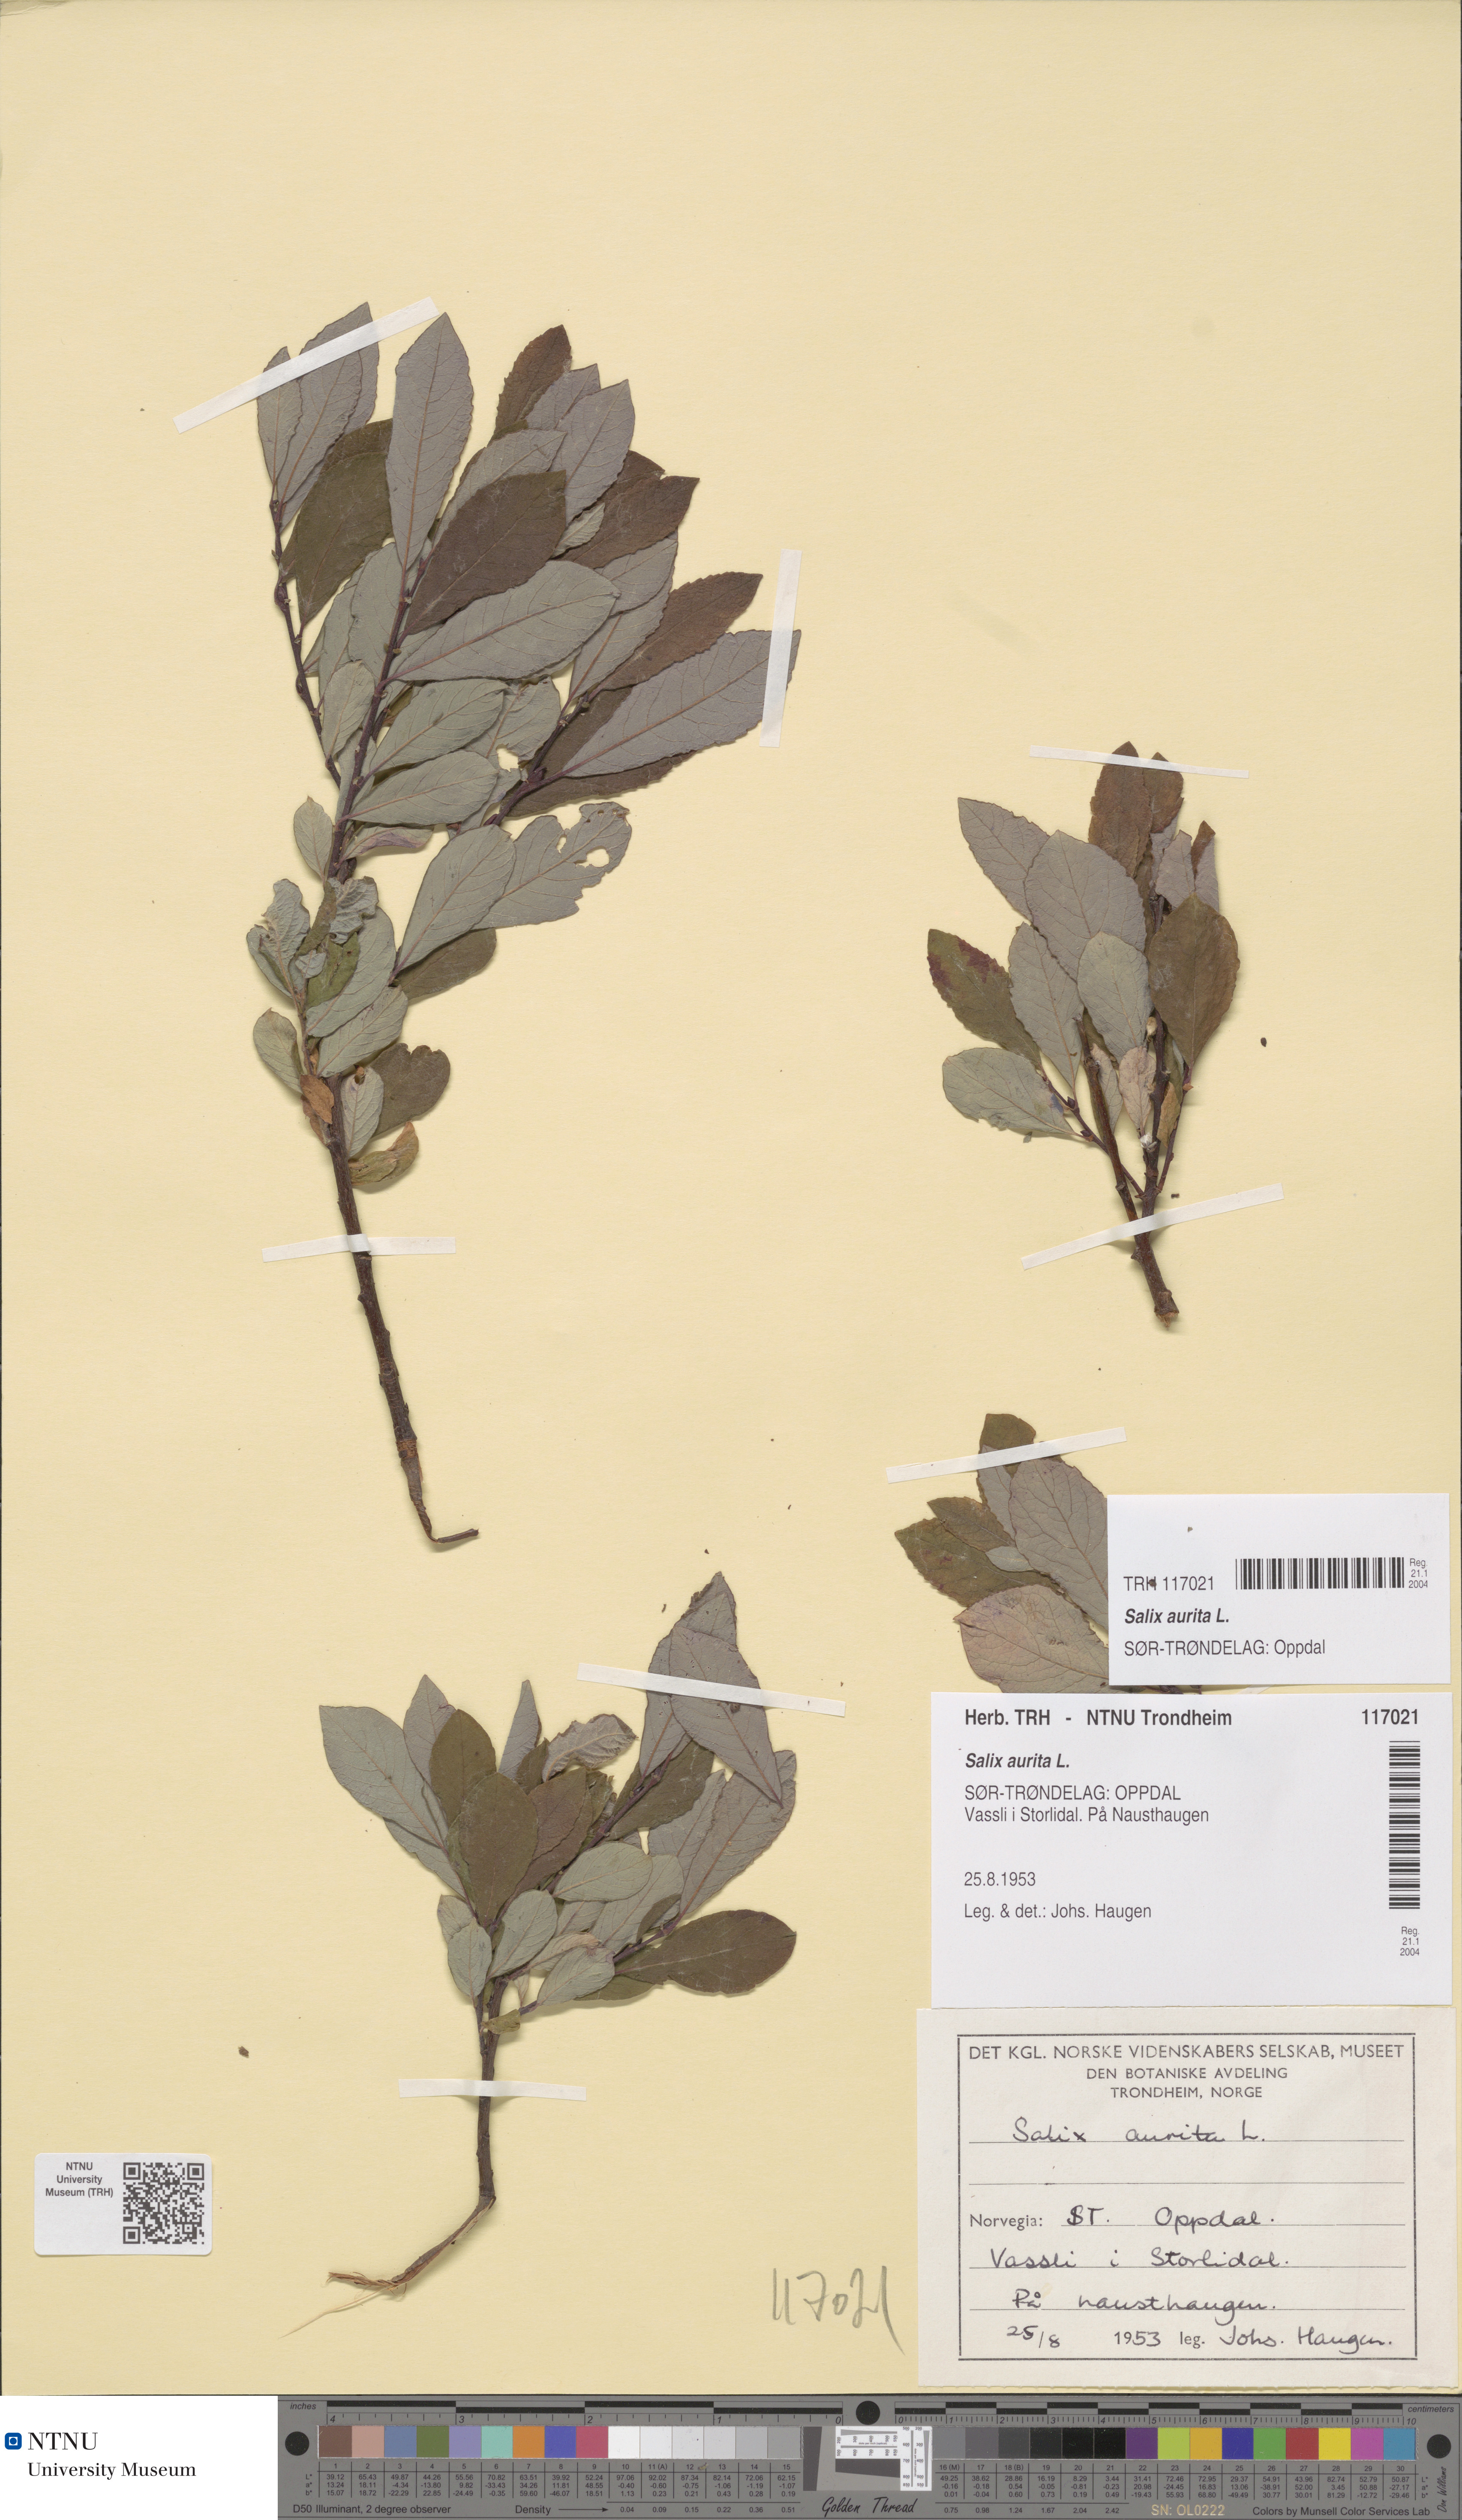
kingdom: Plantae
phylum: Tracheophyta
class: Magnoliopsida
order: Malpighiales
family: Salicaceae
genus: Salix
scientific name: Salix aurita
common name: Eared willow
